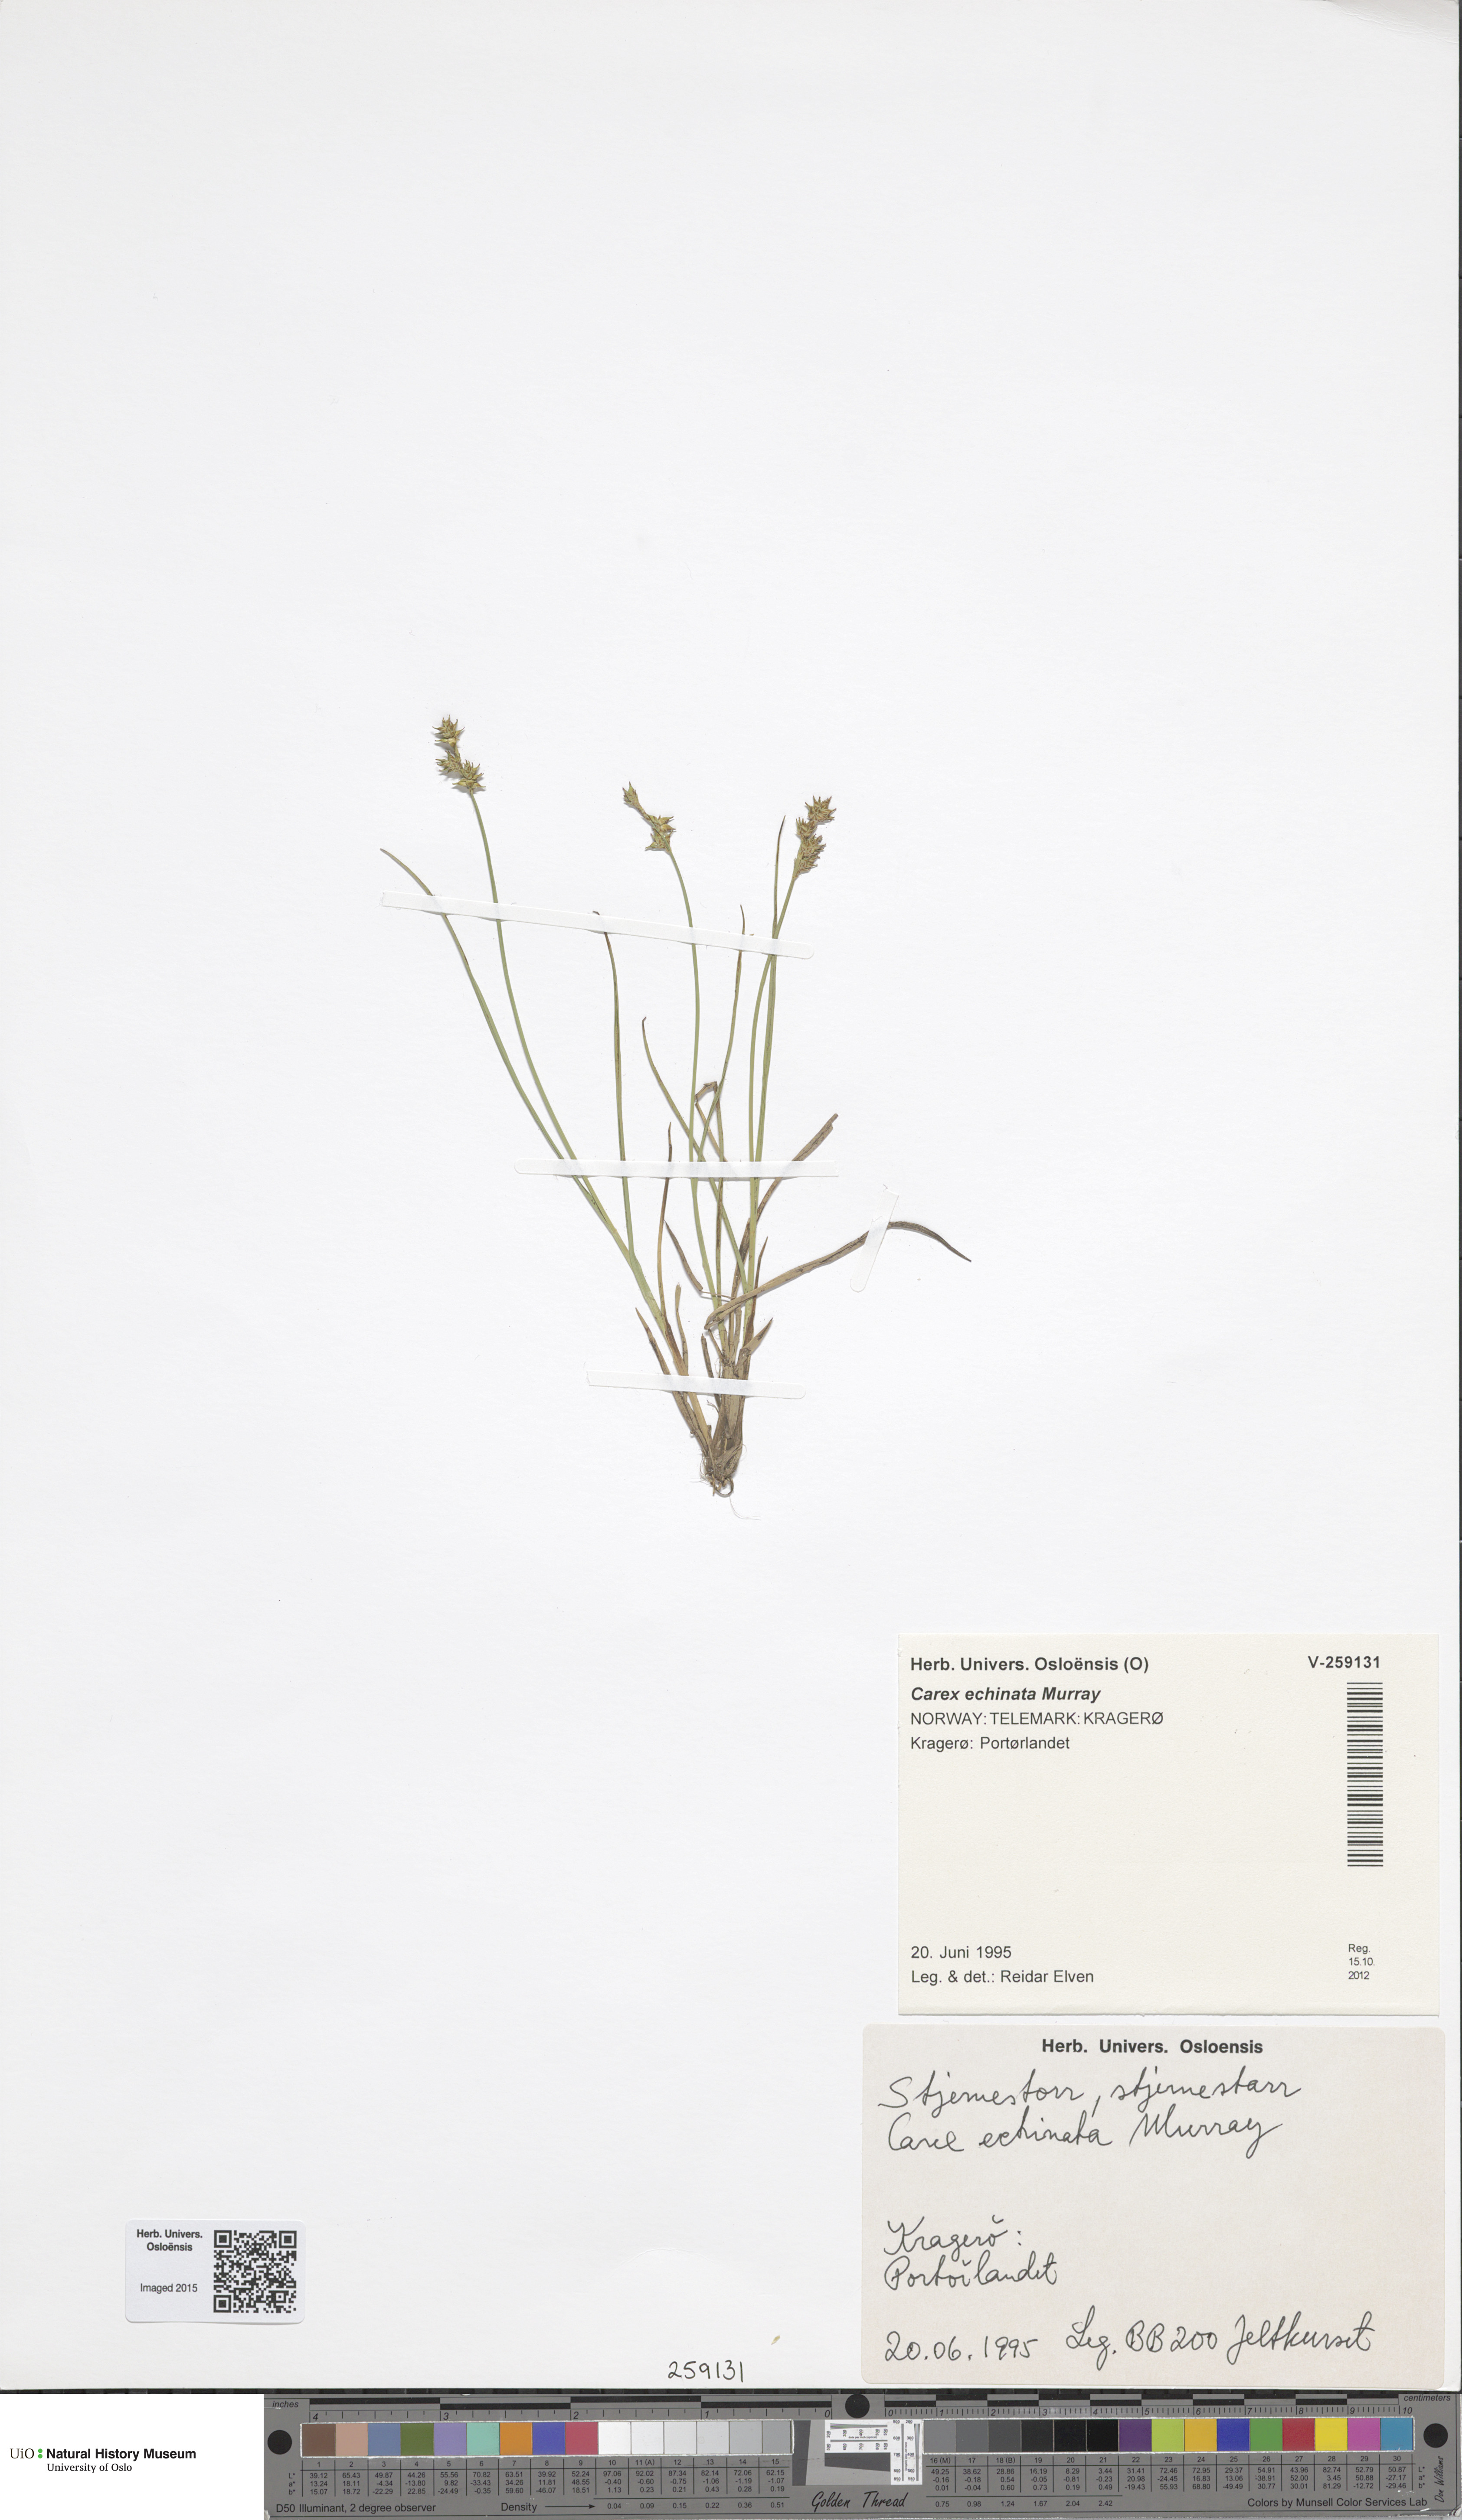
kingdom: Plantae
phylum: Tracheophyta
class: Liliopsida
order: Poales
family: Cyperaceae
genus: Carex
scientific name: Carex echinata
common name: Star sedge
